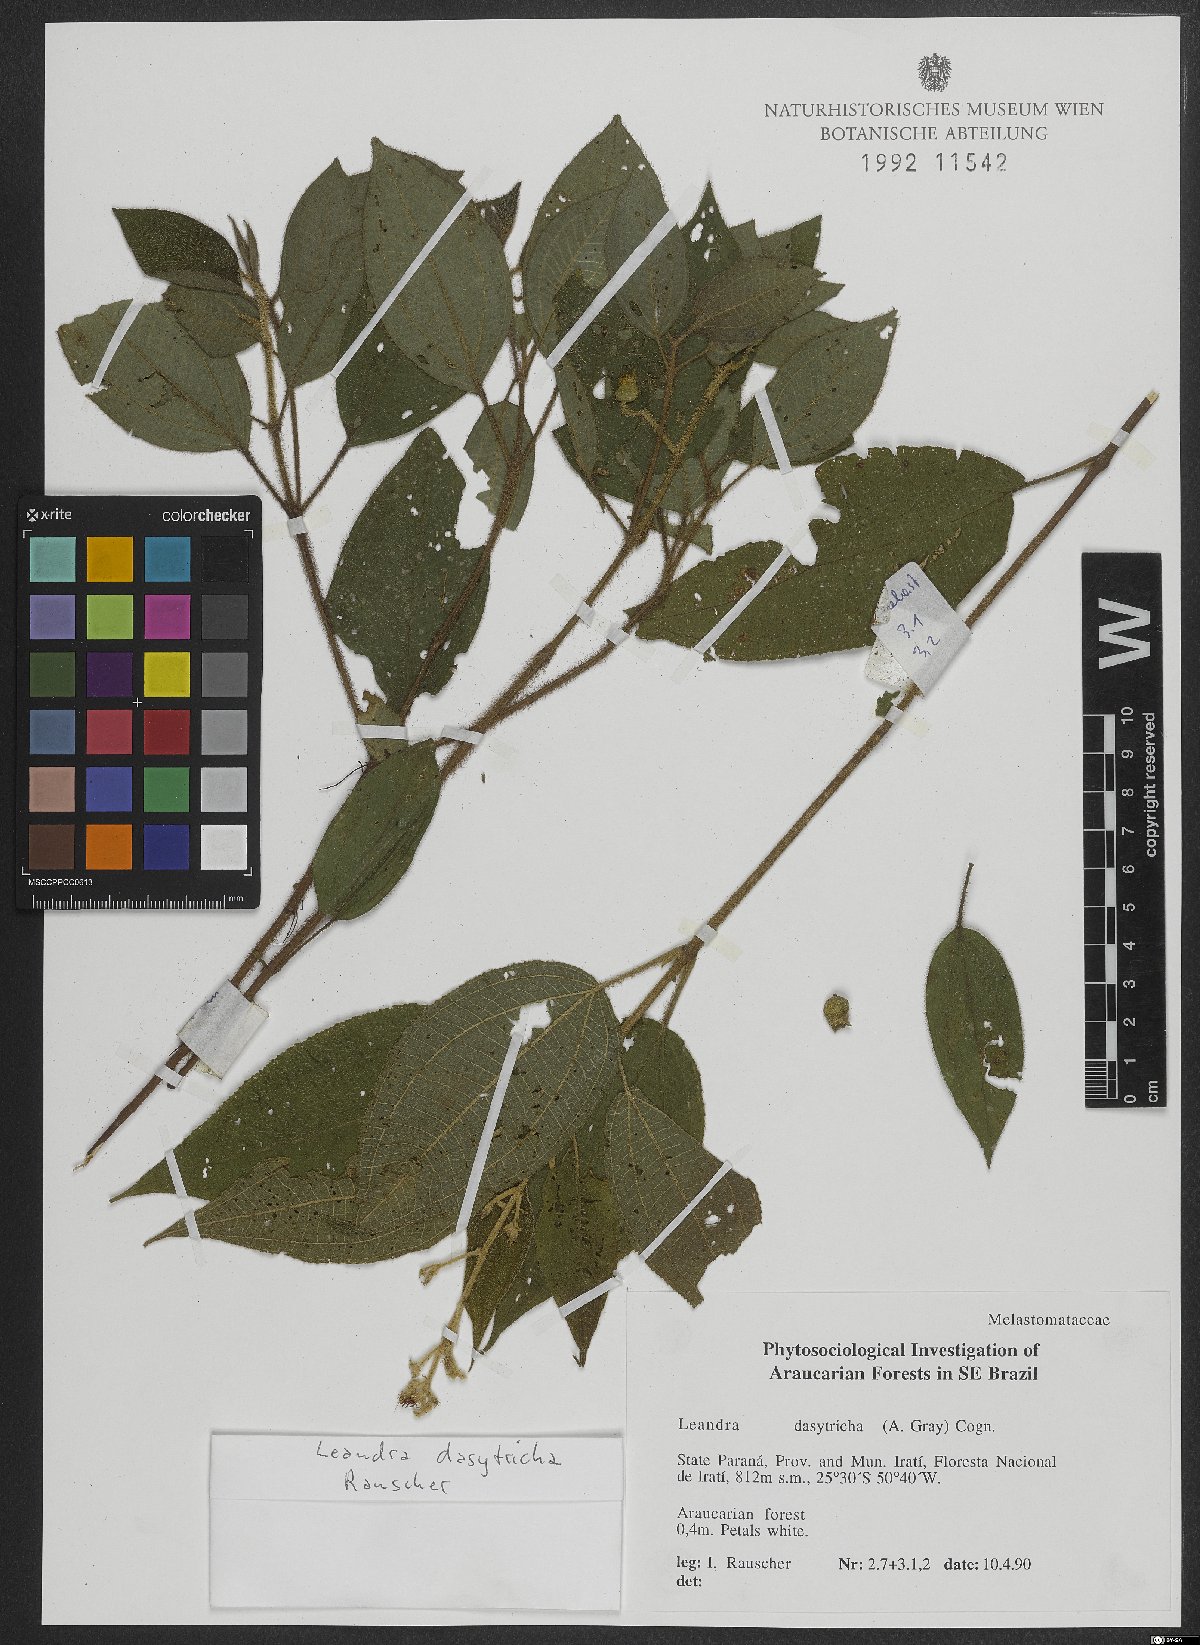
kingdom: Plantae
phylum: Tracheophyta
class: Magnoliopsida
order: Myrtales
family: Melastomataceae
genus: Miconia
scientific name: Miconia dasytricha
